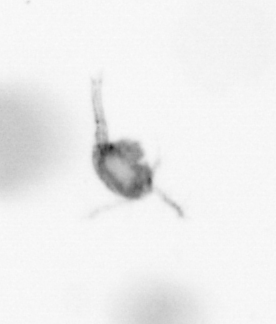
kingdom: Animalia
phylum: Arthropoda
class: Copepoda
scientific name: Copepoda
